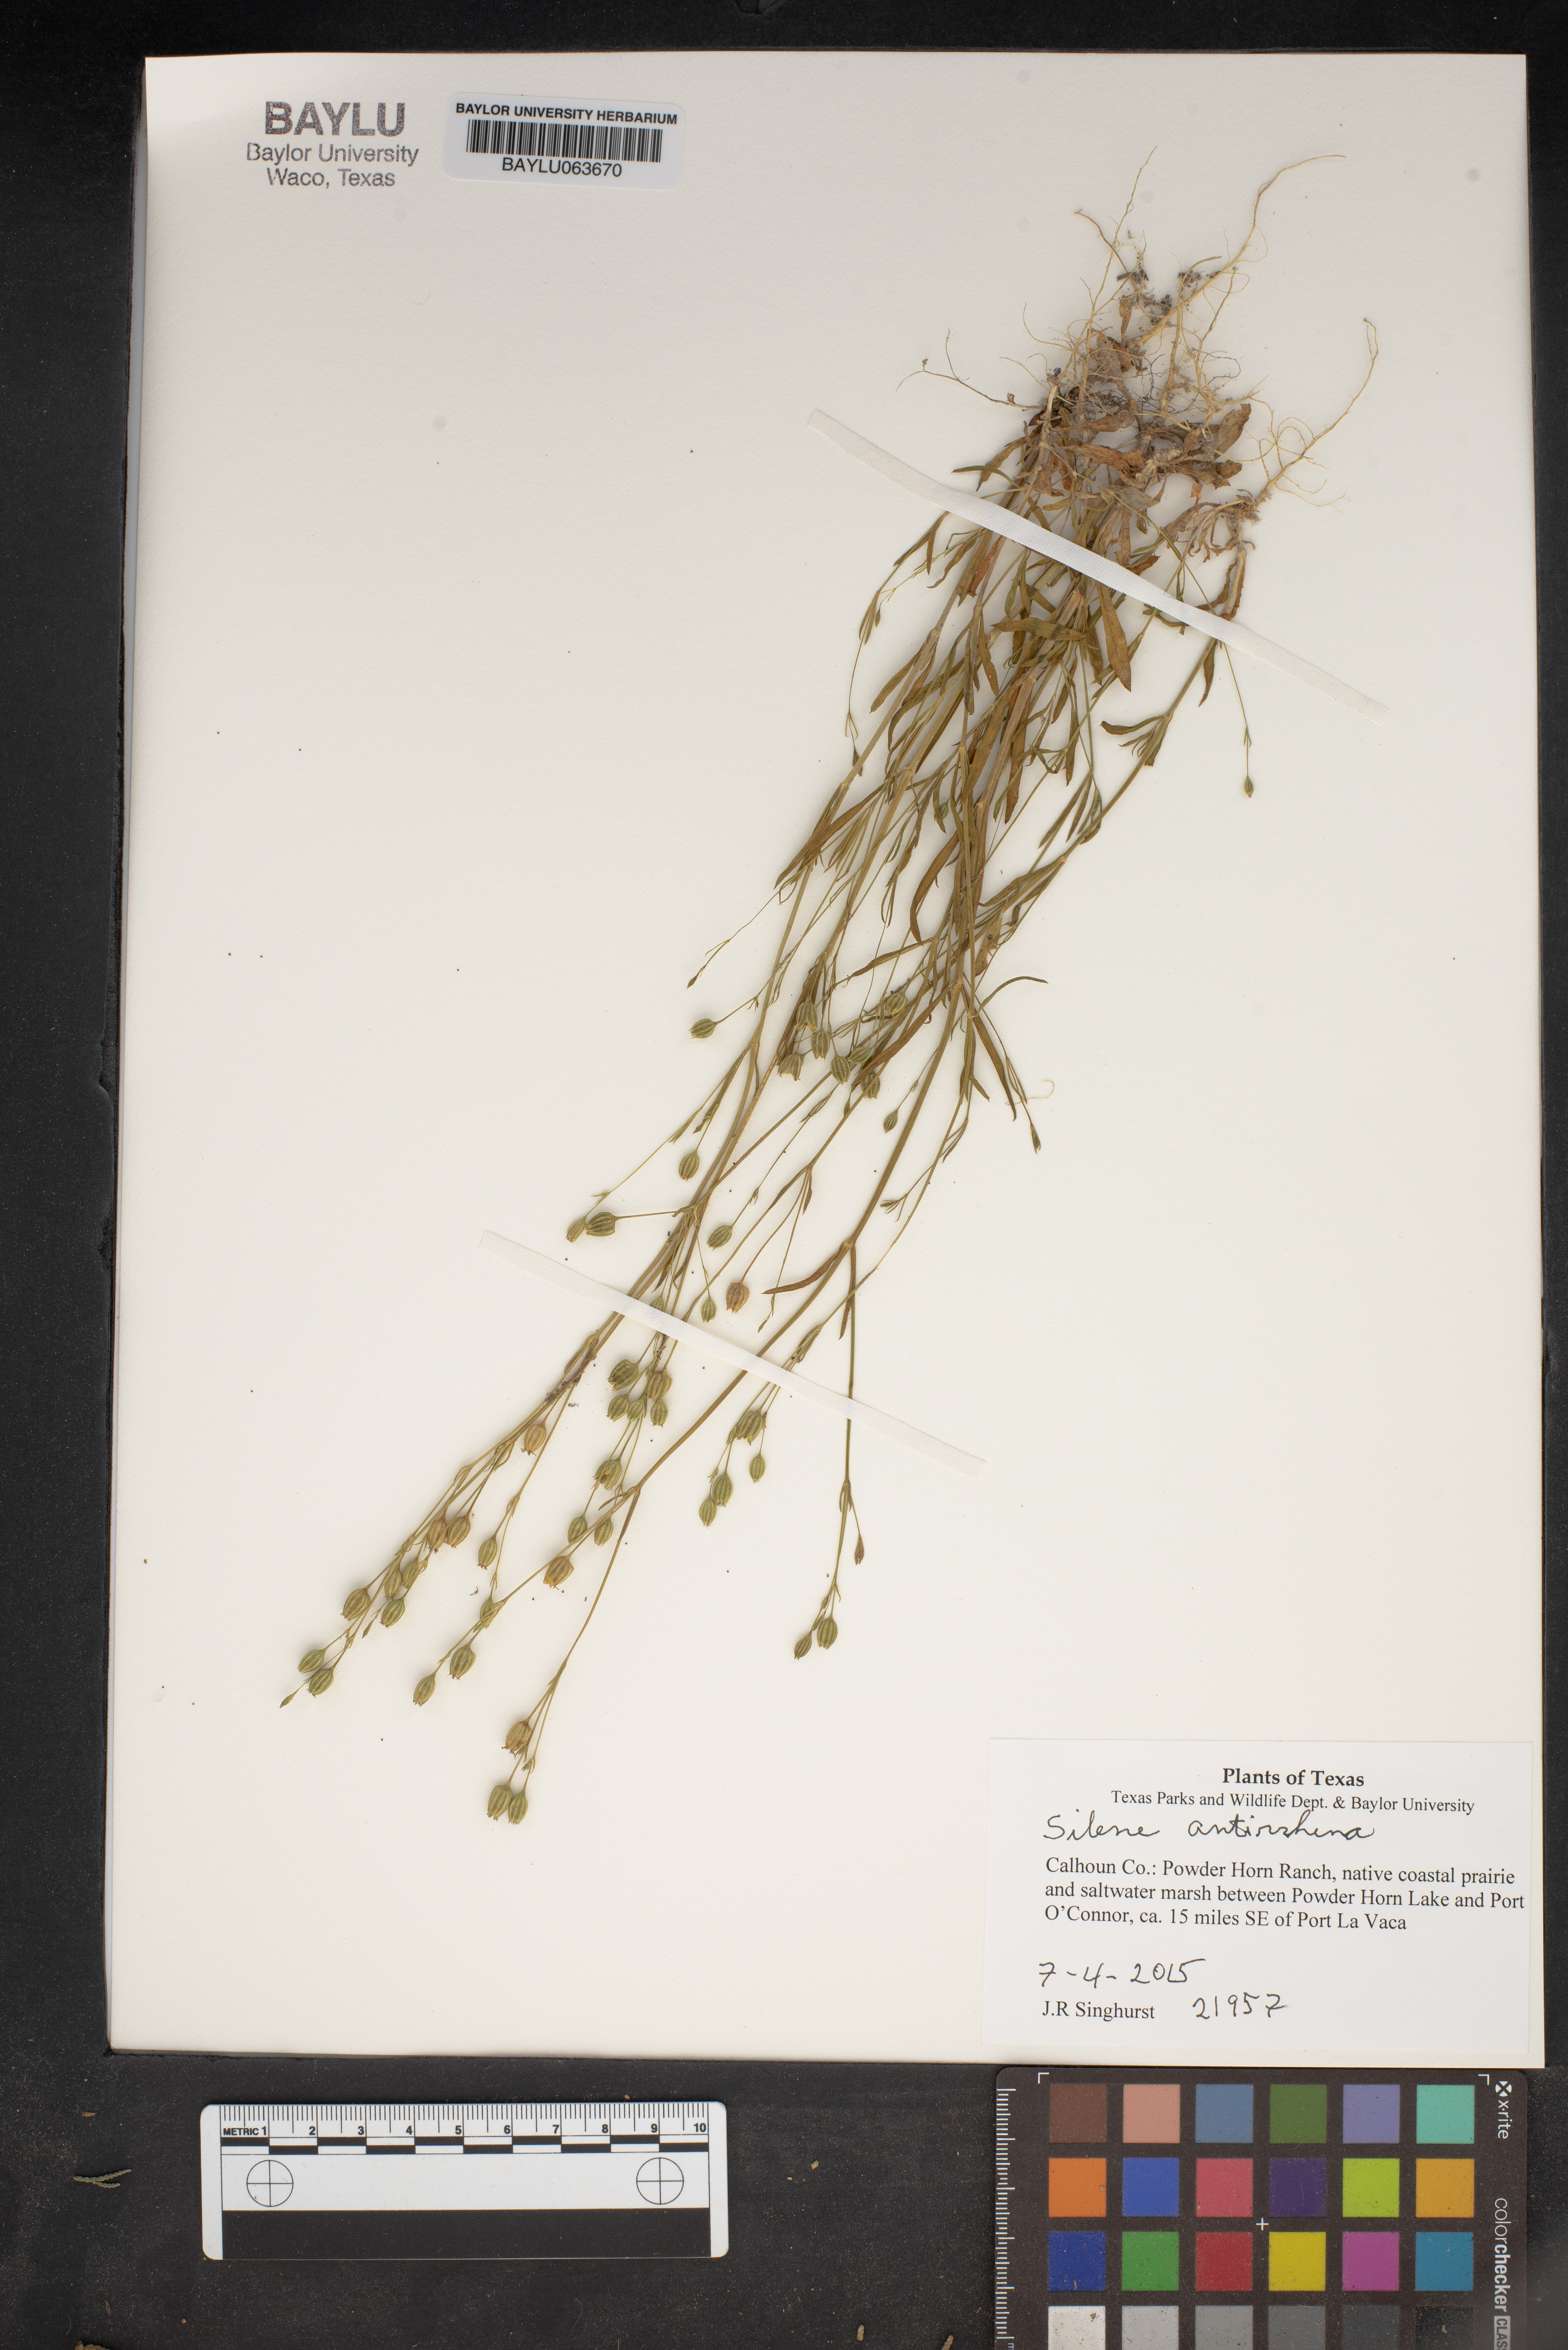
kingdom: Plantae
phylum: Tracheophyta
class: Magnoliopsida
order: Caryophyllales
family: Caryophyllaceae
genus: Silene
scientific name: Silene antirrhina
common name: Sleepy catchfly
